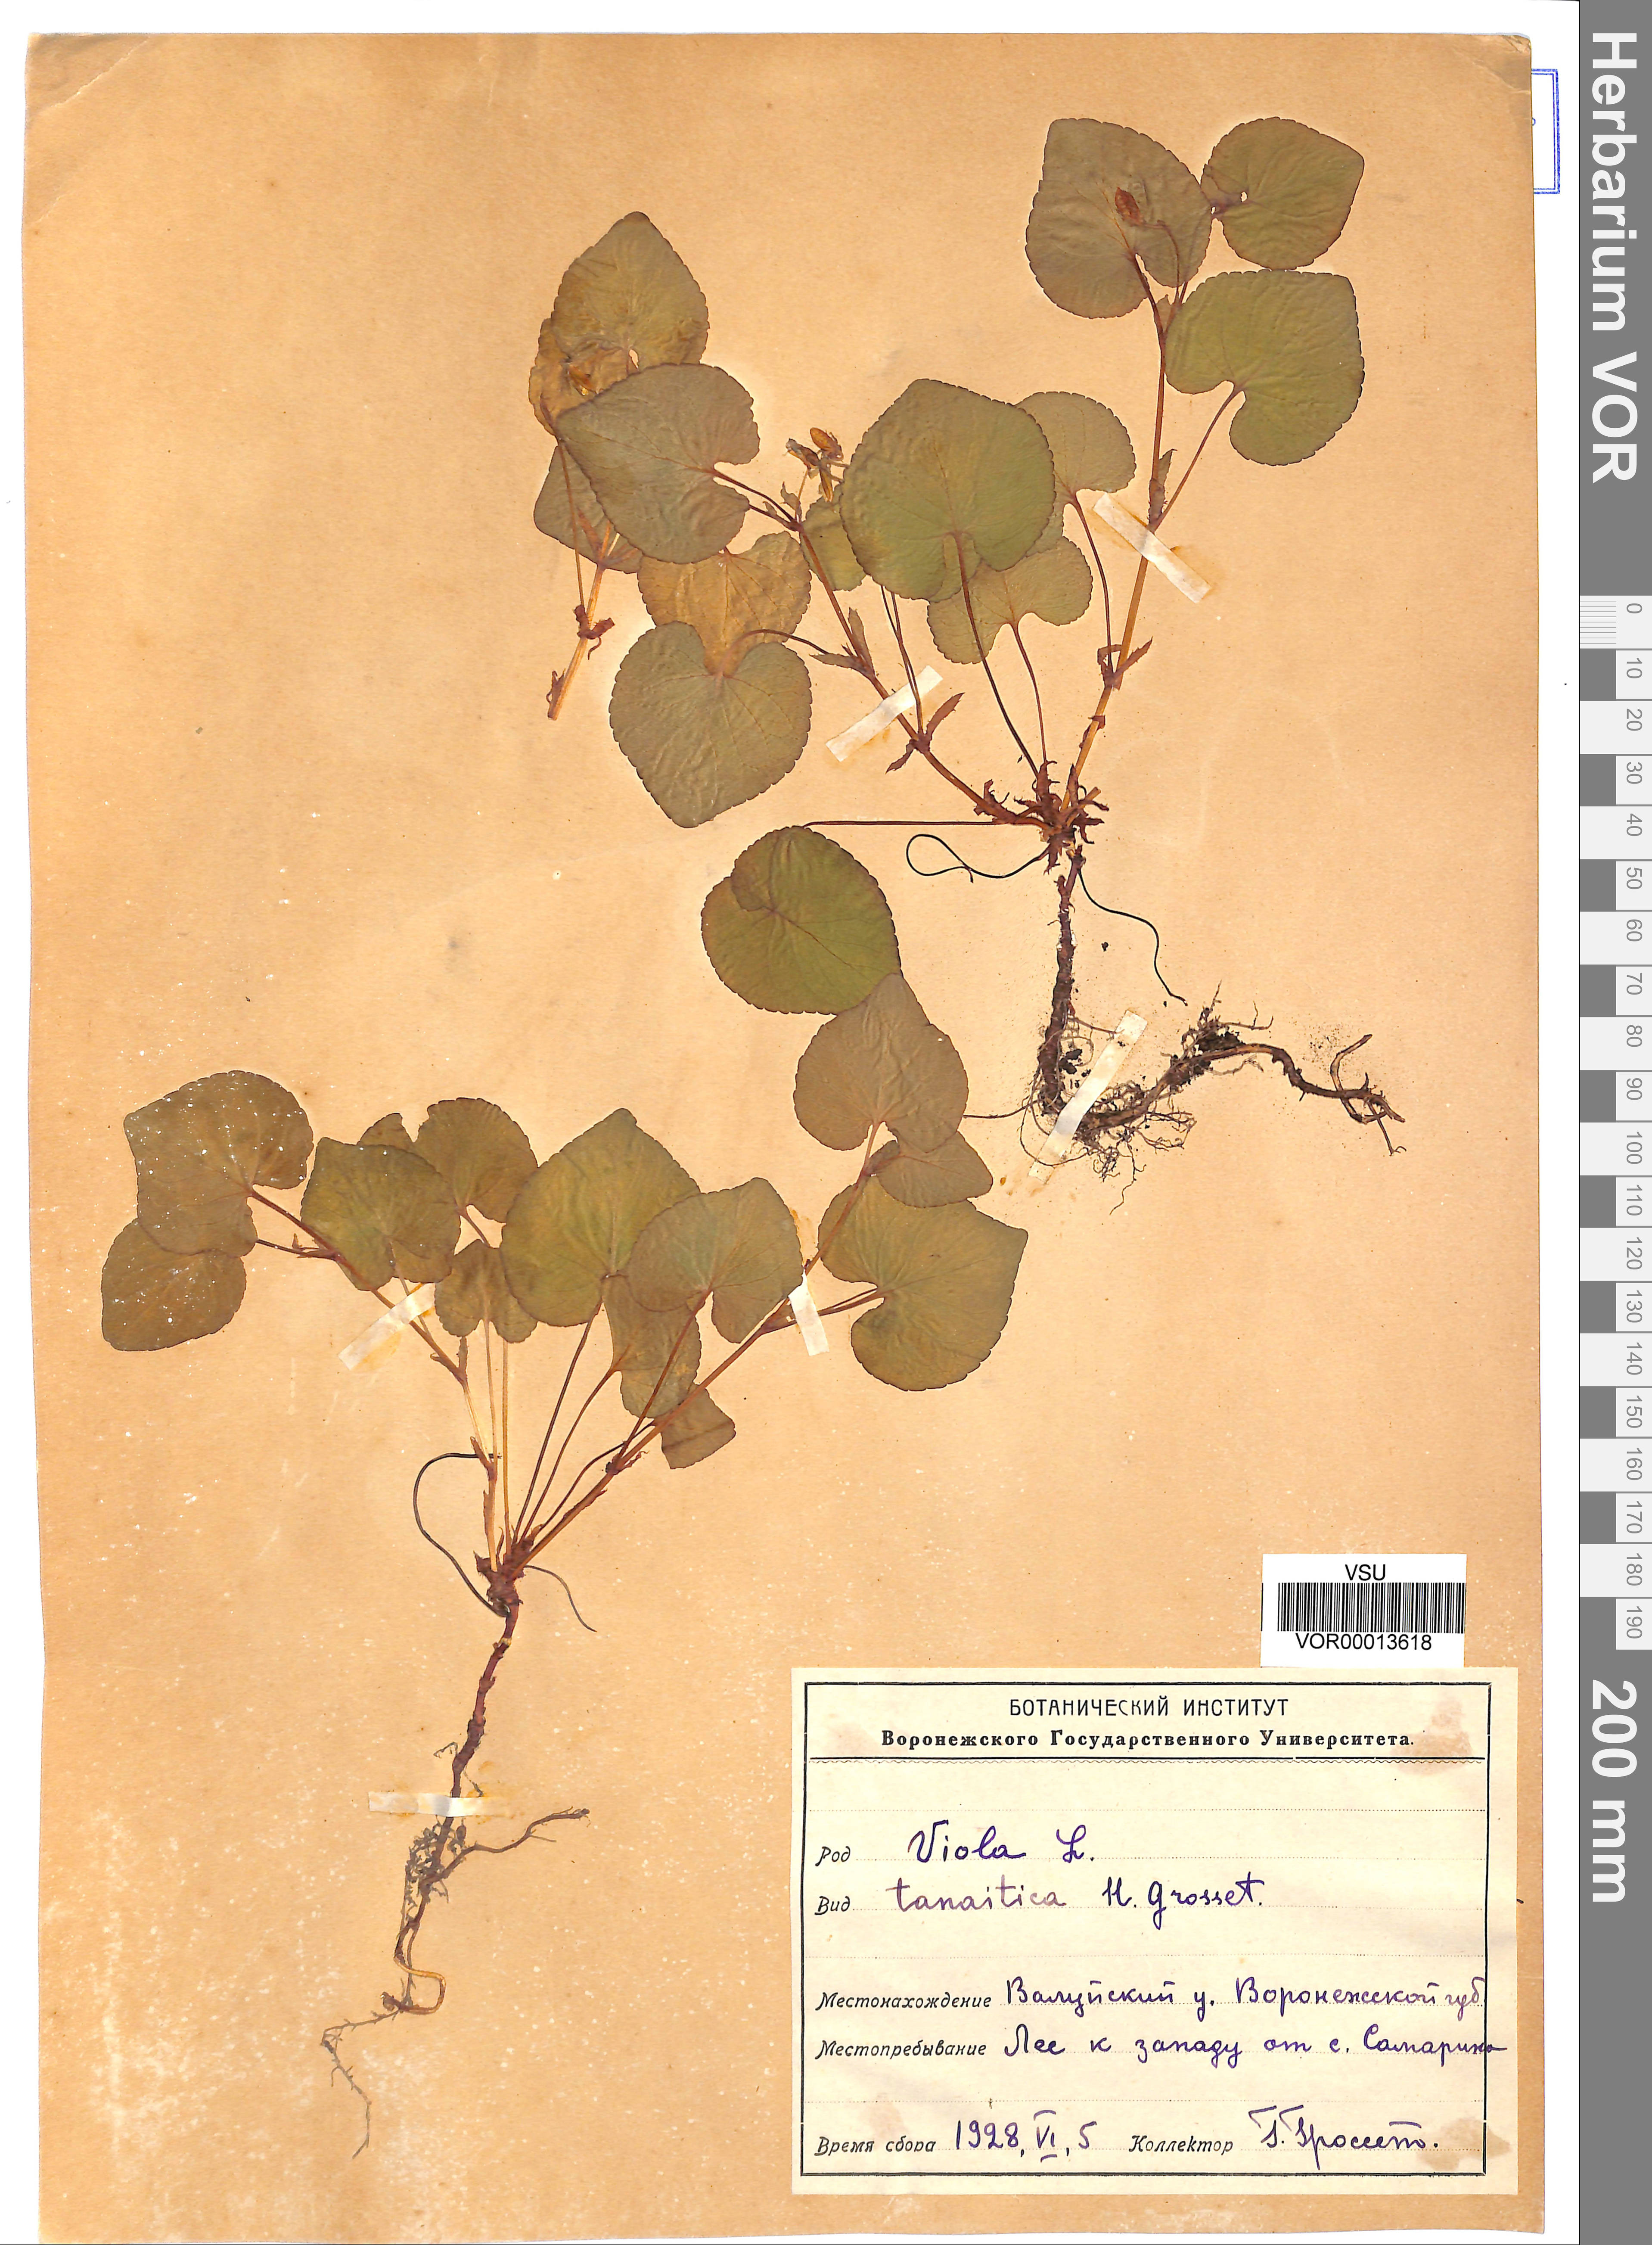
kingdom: Plantae
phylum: Tracheophyta
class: Magnoliopsida
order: Malpighiales
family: Violaceae
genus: Viola
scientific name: Viola tanaitica
